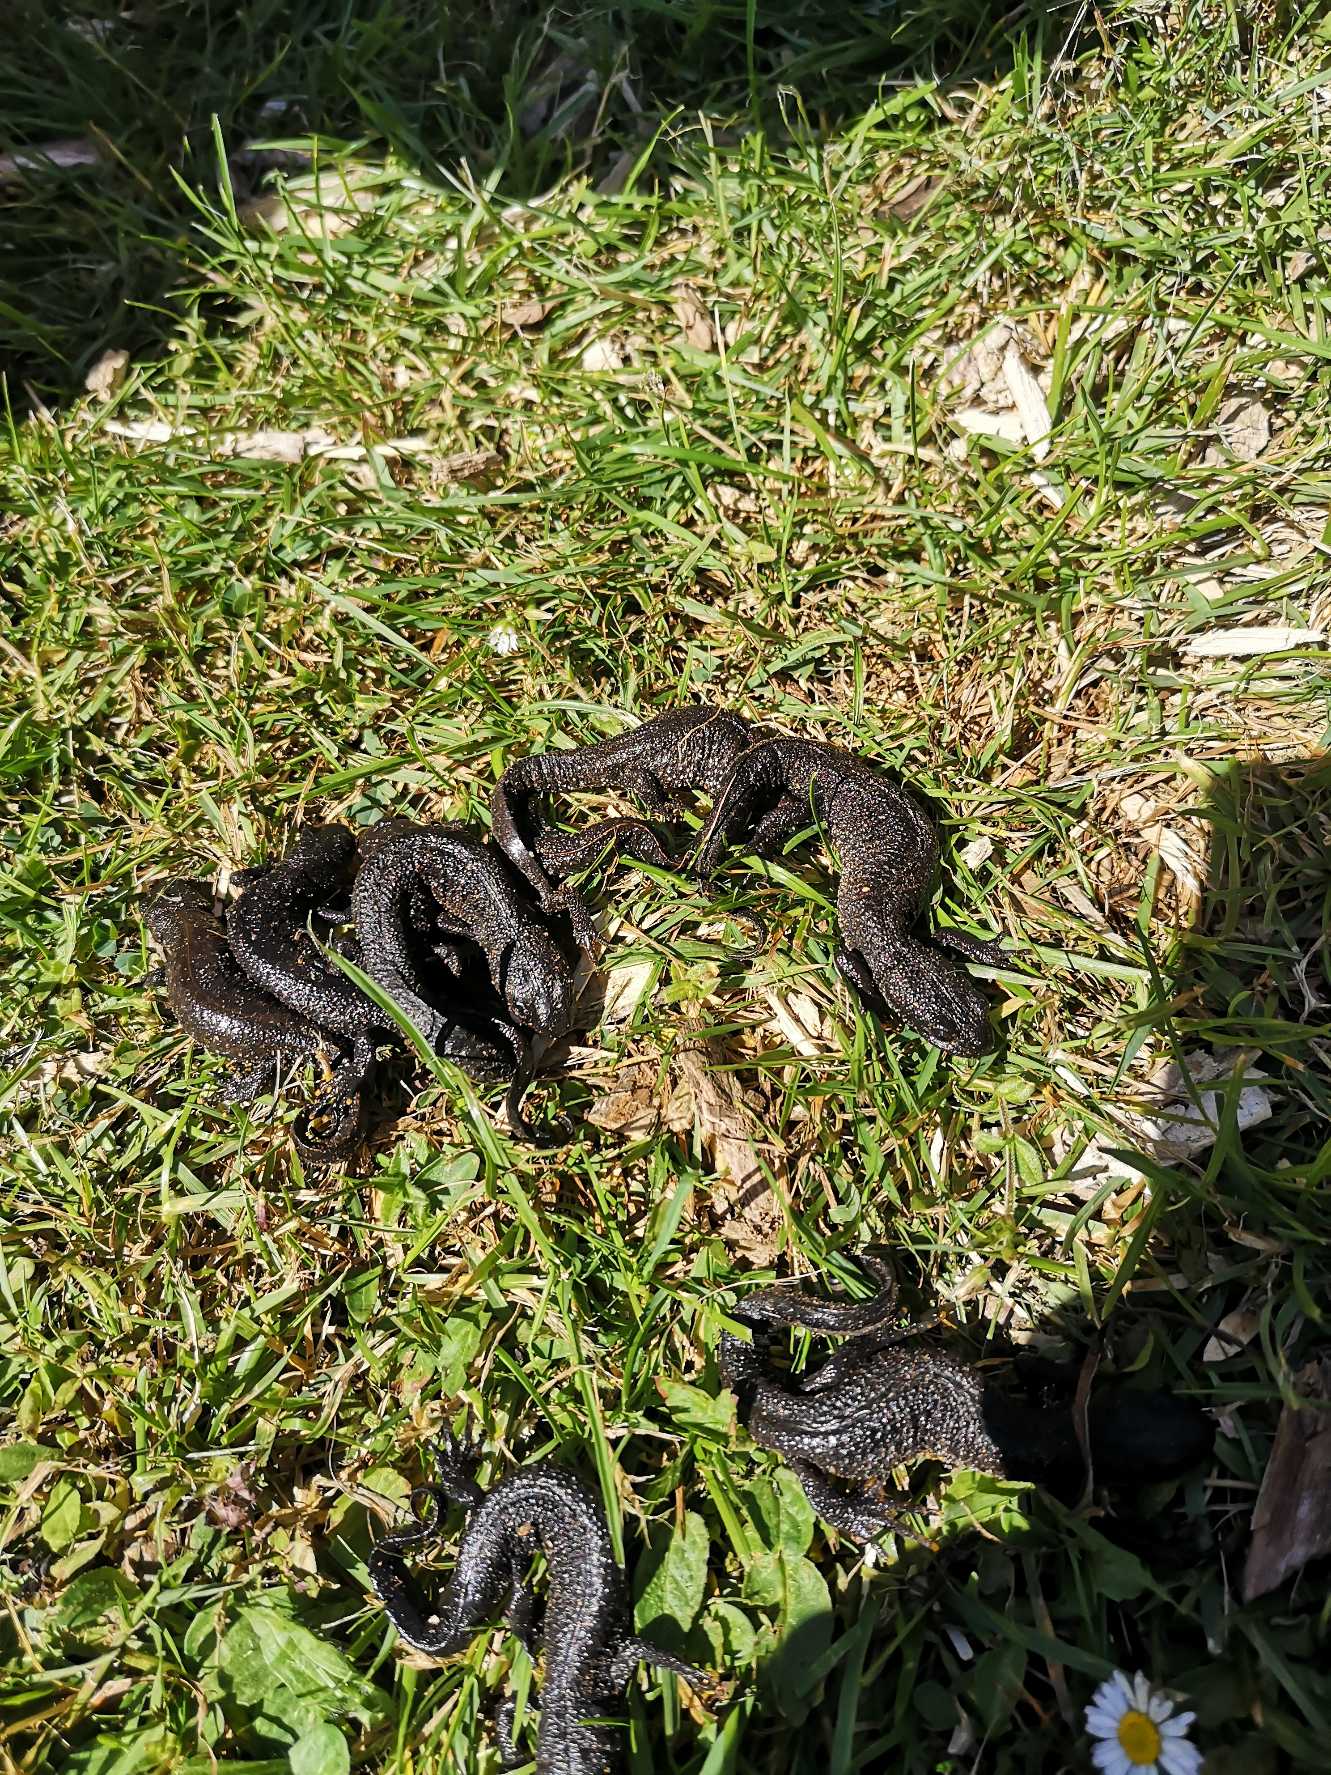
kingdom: Animalia
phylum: Chordata
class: Amphibia
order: Caudata
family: Salamandridae
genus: Triturus
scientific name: Triturus cristatus
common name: Stor vandsalamander
